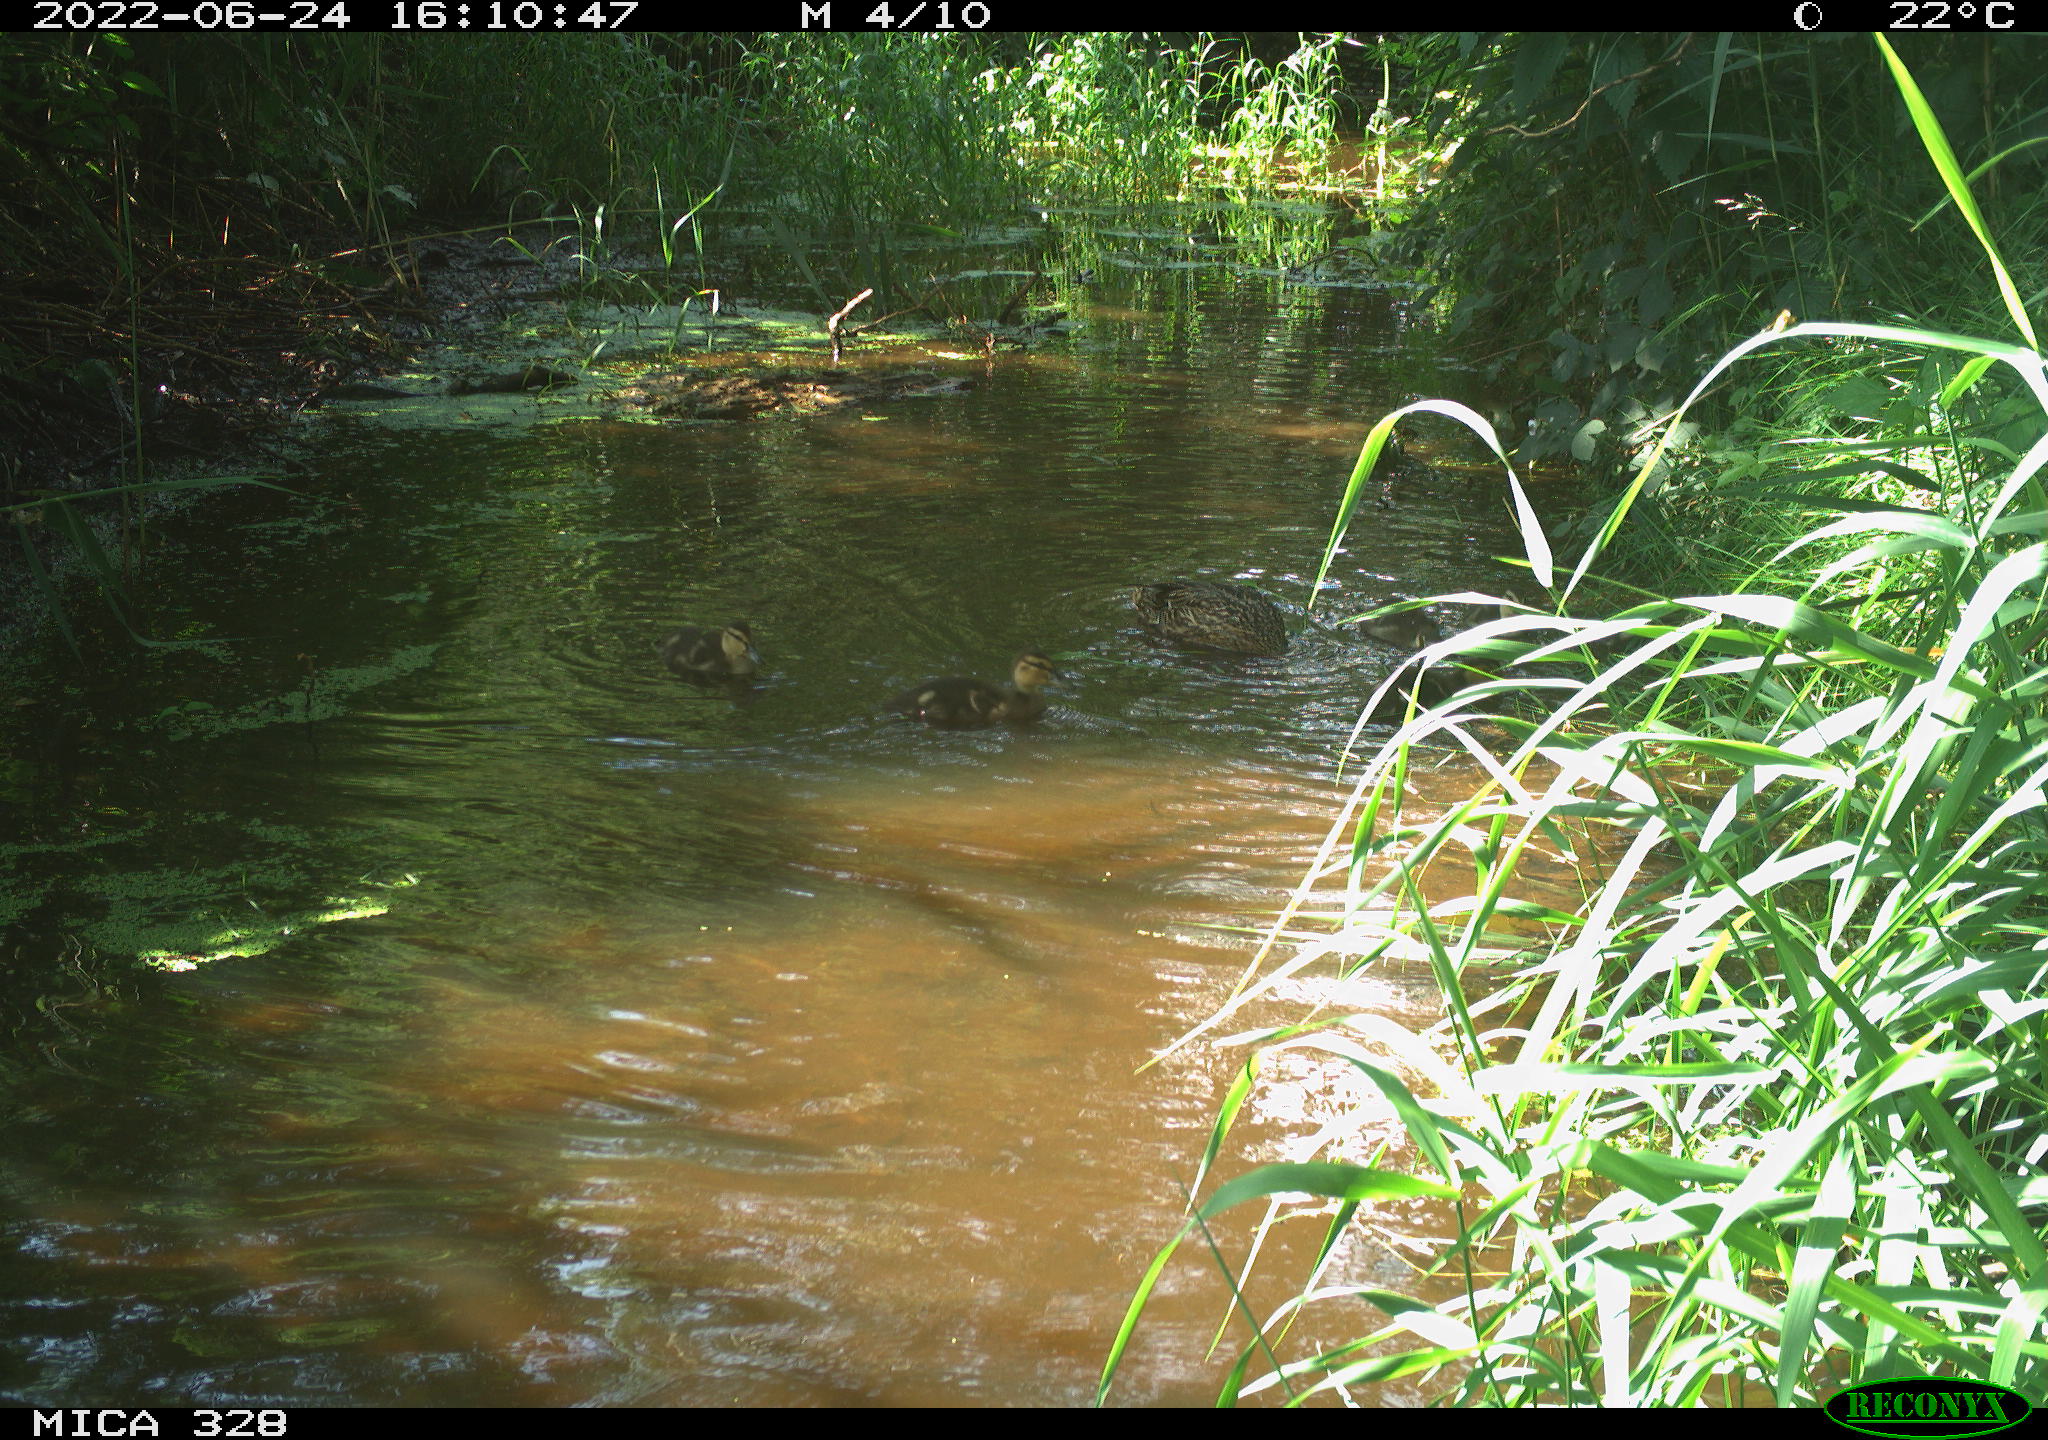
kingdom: Animalia
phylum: Chordata
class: Aves
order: Anseriformes
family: Anatidae
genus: Anas
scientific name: Anas platyrhynchos
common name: Mallard
